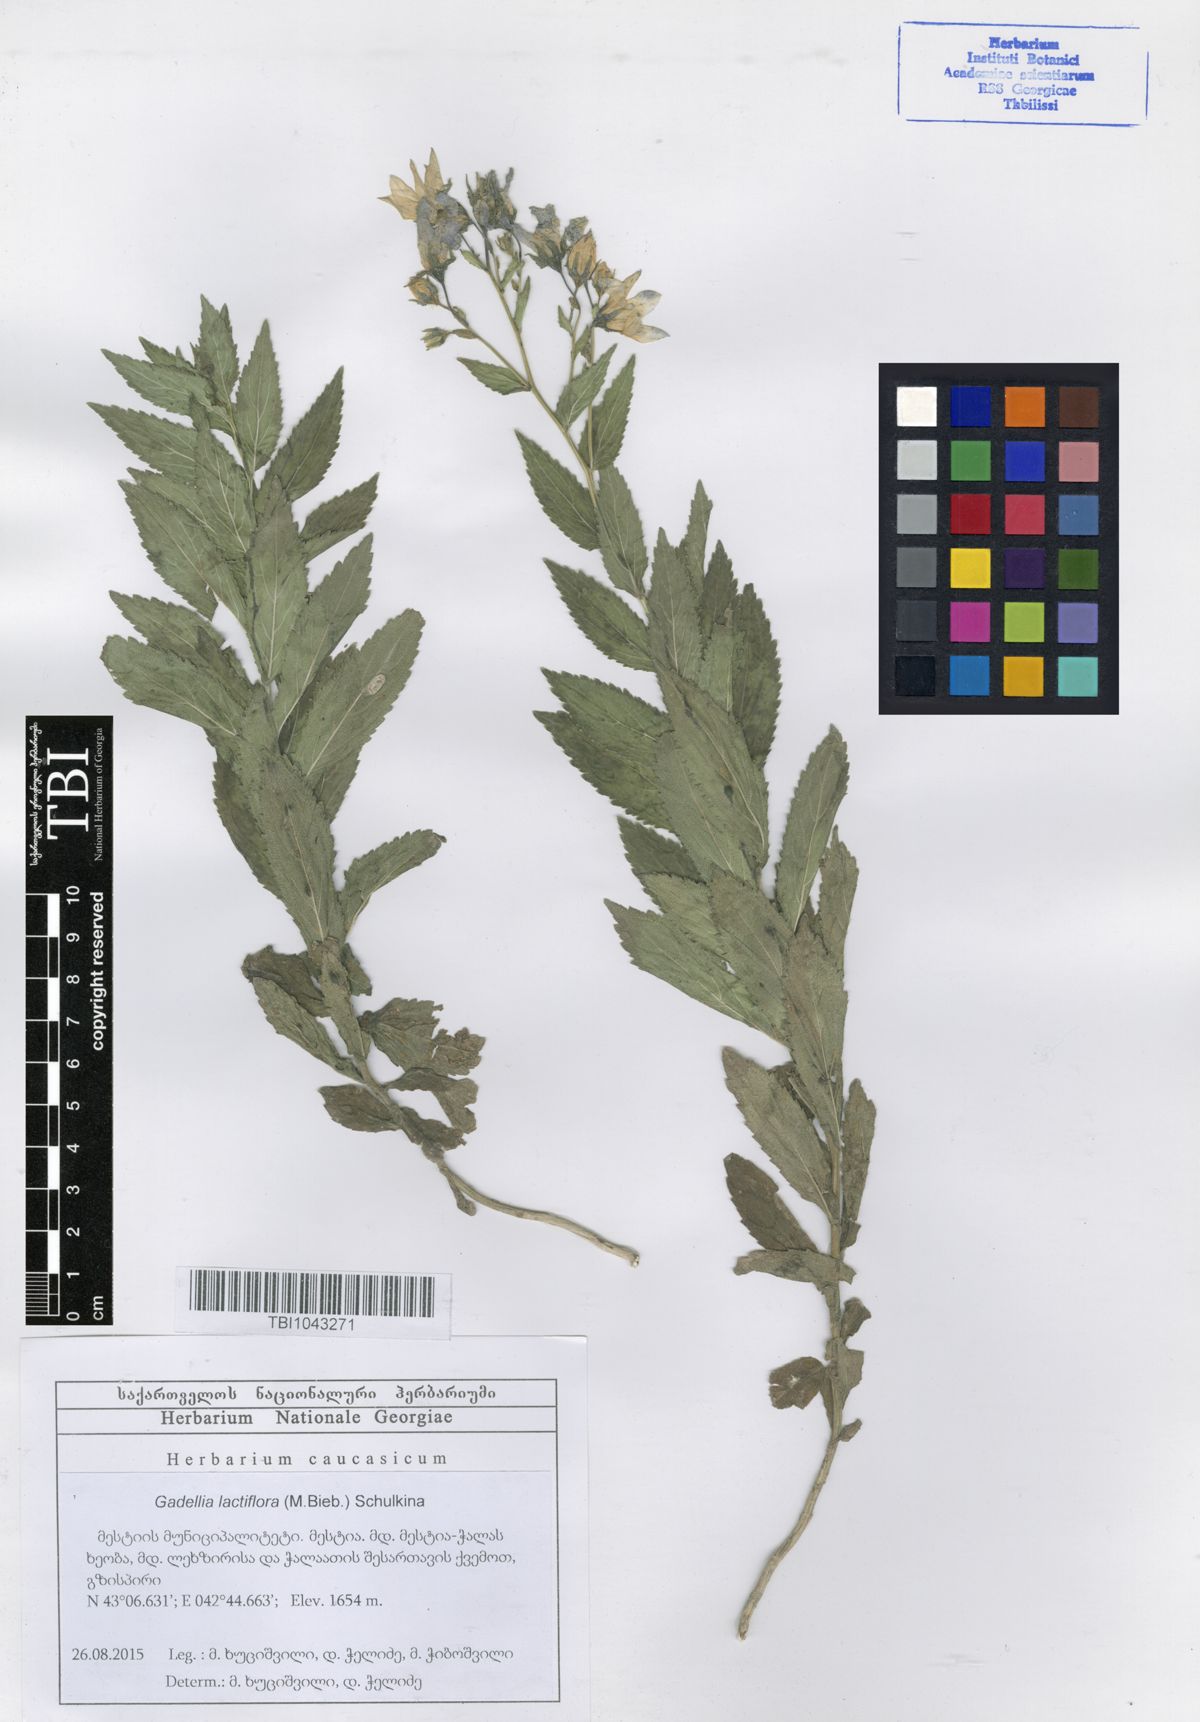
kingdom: Plantae
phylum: Tracheophyta
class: Magnoliopsida
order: Asterales
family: Campanulaceae
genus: Campanula
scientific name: Campanula lactiflora
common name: Milky bellflower
